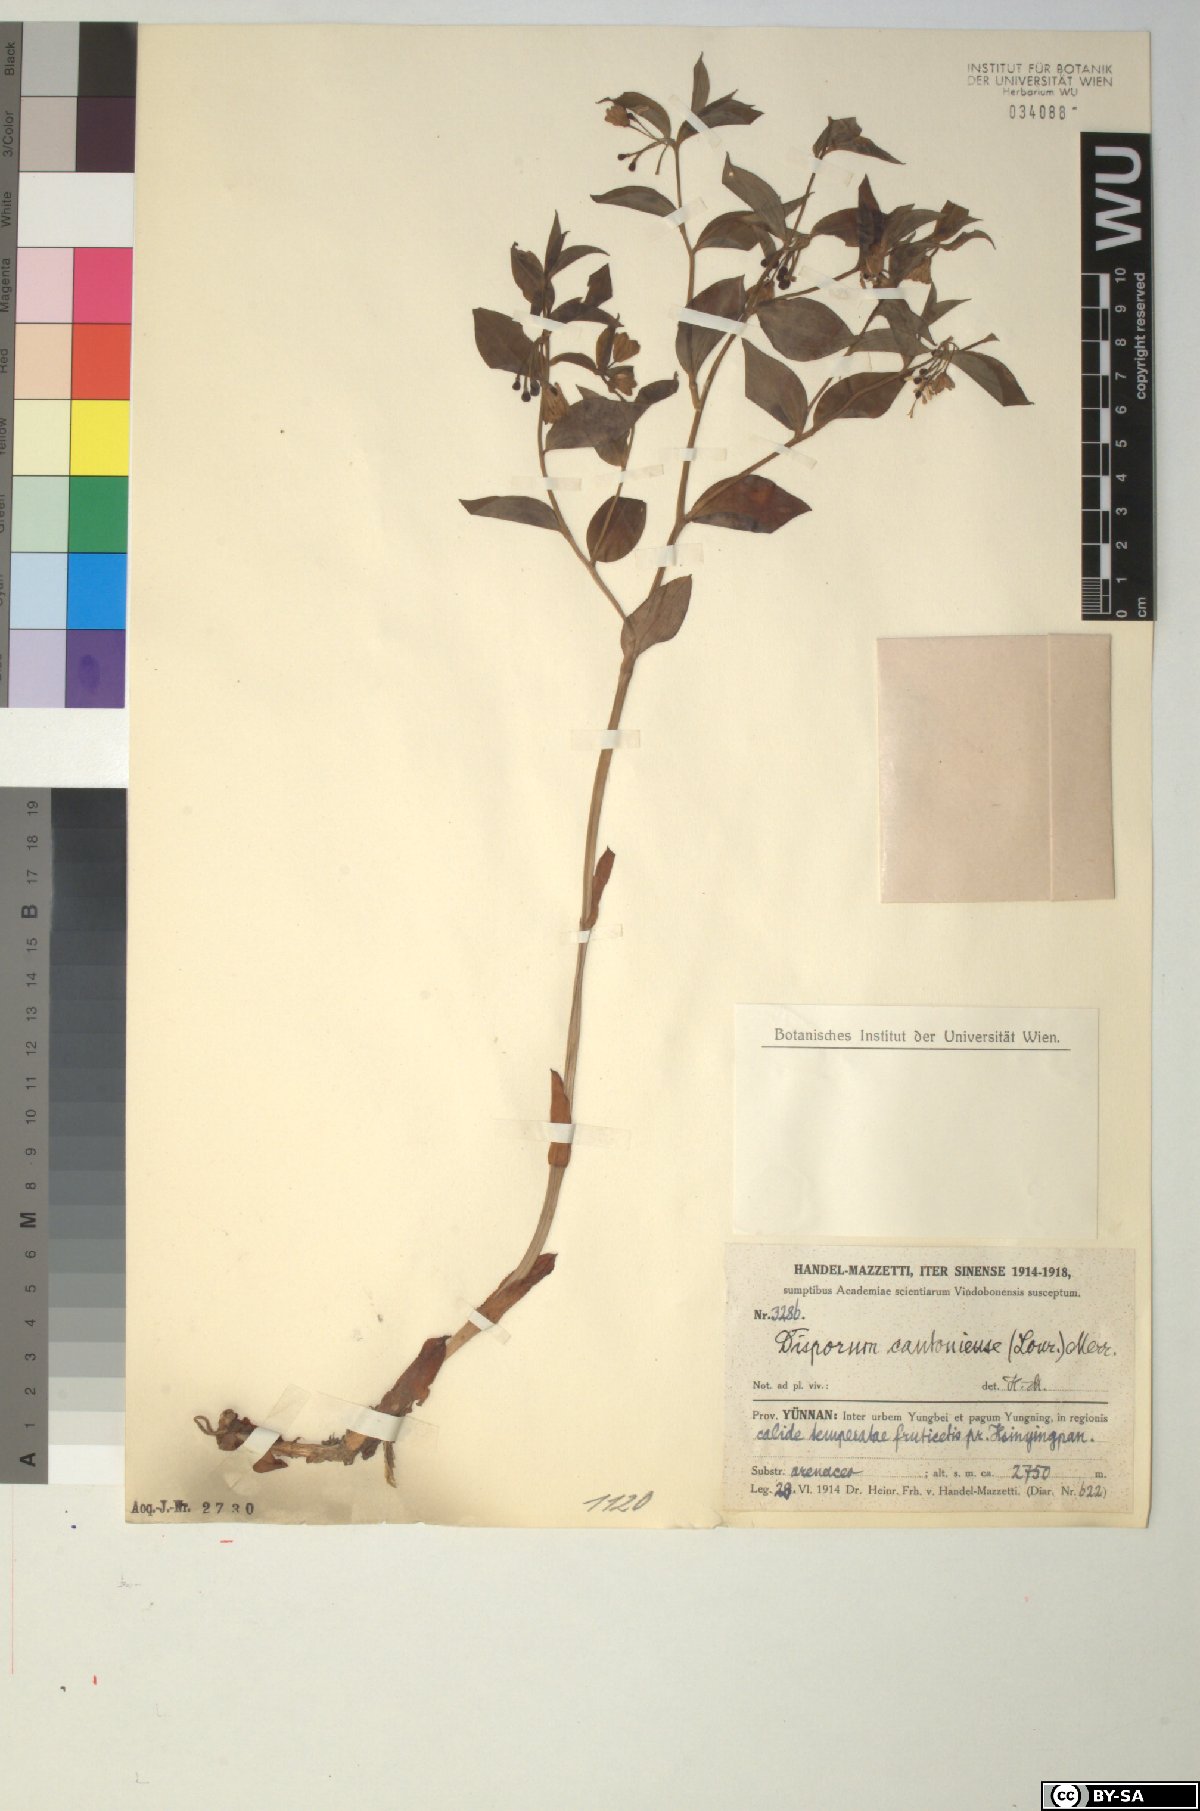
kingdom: Plantae
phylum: Tracheophyta
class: Liliopsida
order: Liliales
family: Colchicaceae
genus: Disporum
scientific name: Disporum cantoniense
